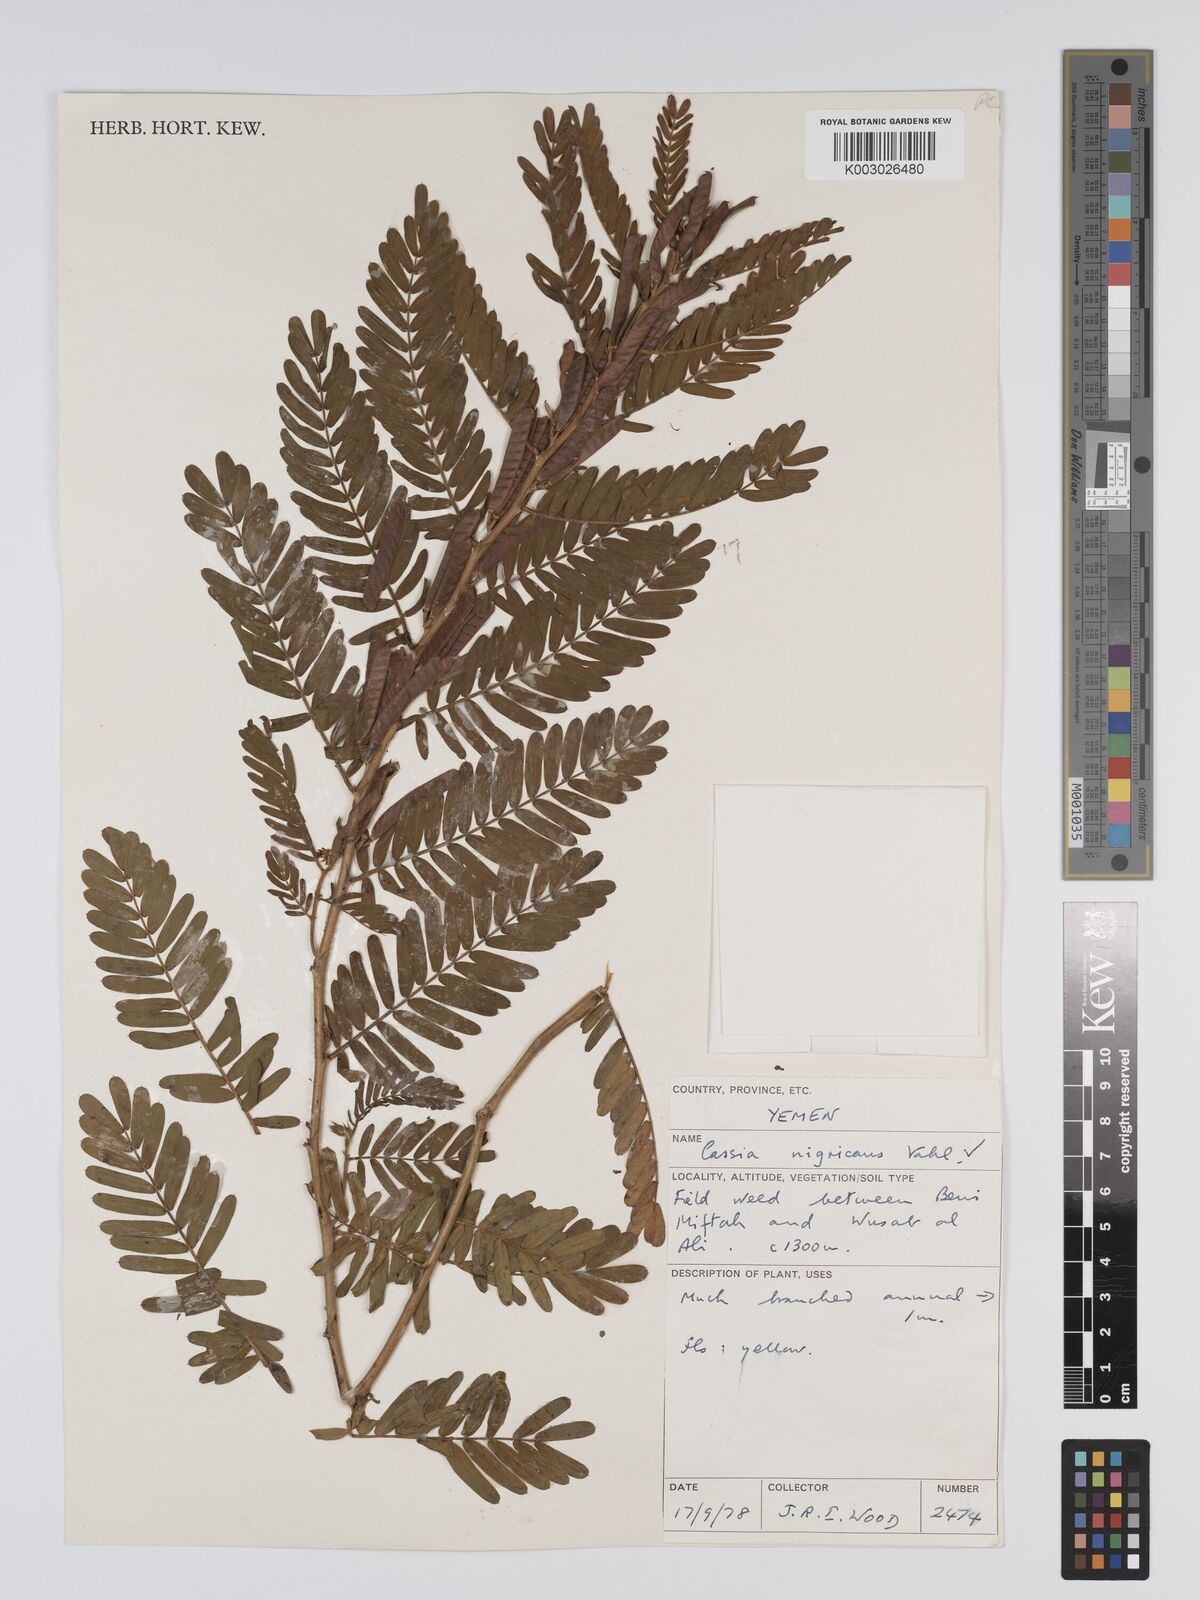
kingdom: Plantae
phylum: Tracheophyta
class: Magnoliopsida
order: Fabales
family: Fabaceae
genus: Chamaecrista
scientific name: Chamaecrista nigricans
